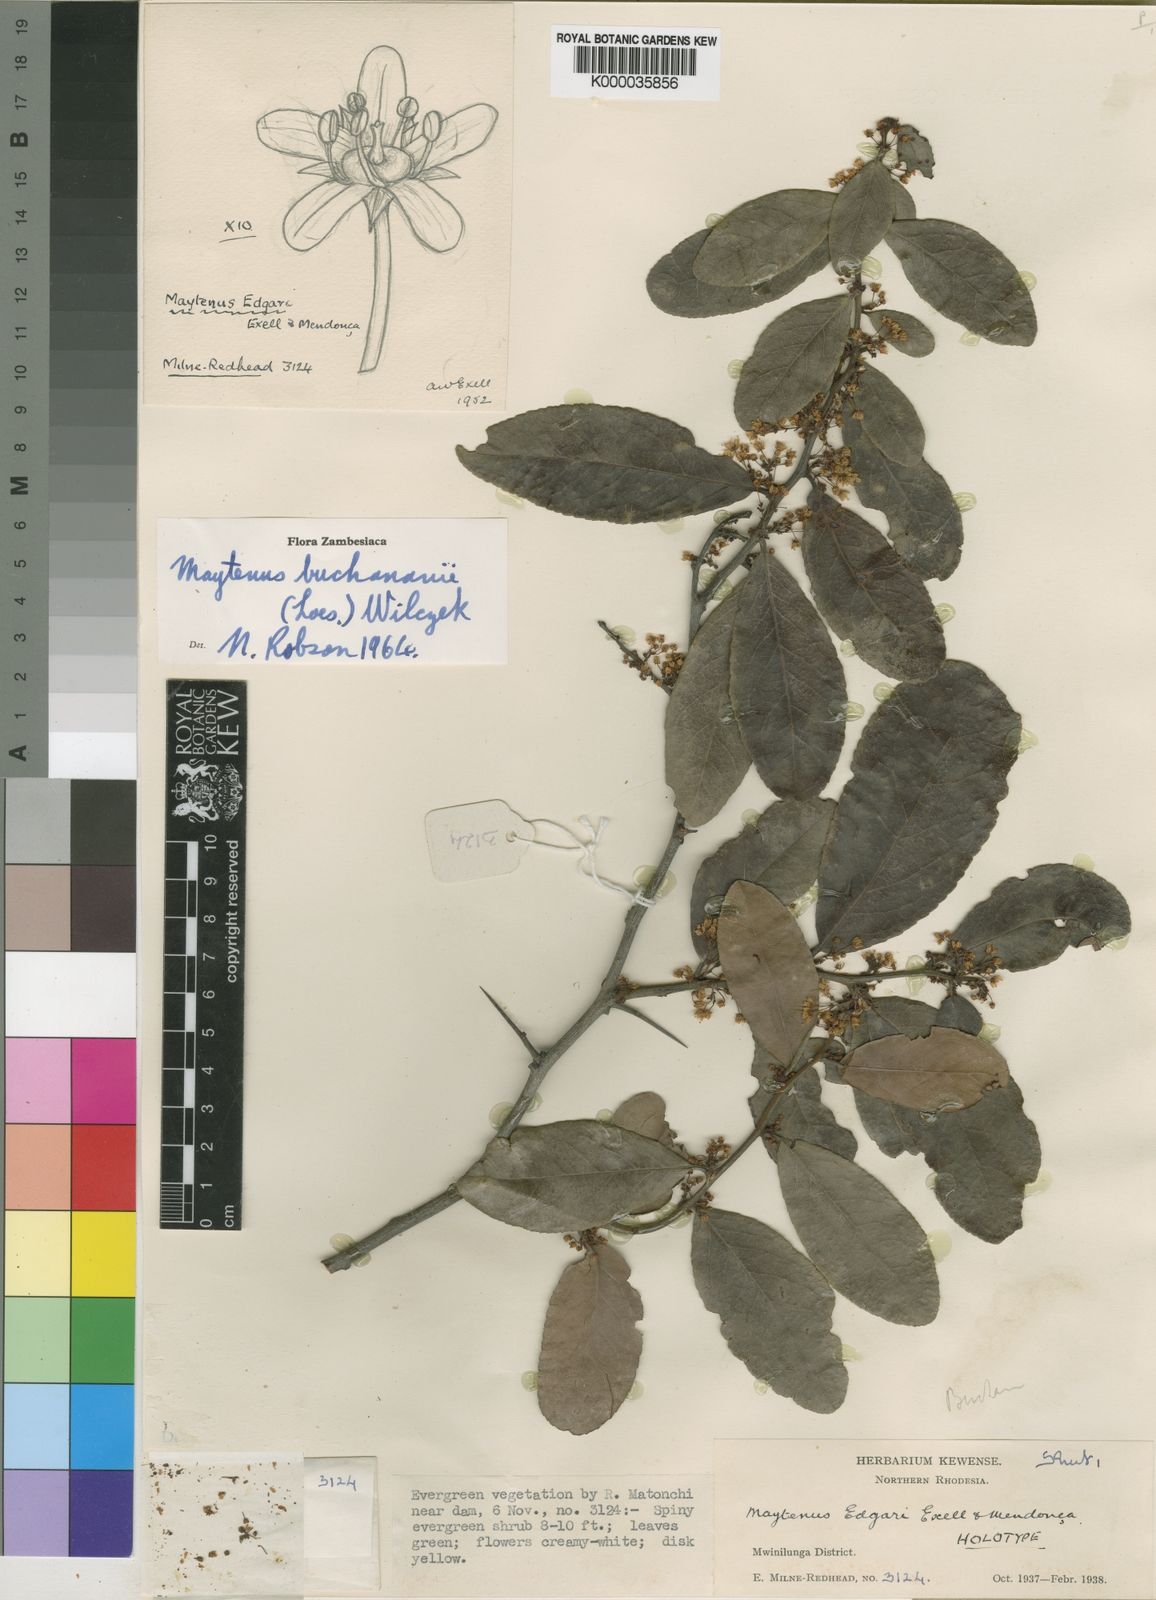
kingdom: Plantae
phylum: Tracheophyta
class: Magnoliopsida
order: Celastrales
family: Celastraceae
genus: Gymnosporia
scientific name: Gymnosporia buchananii
